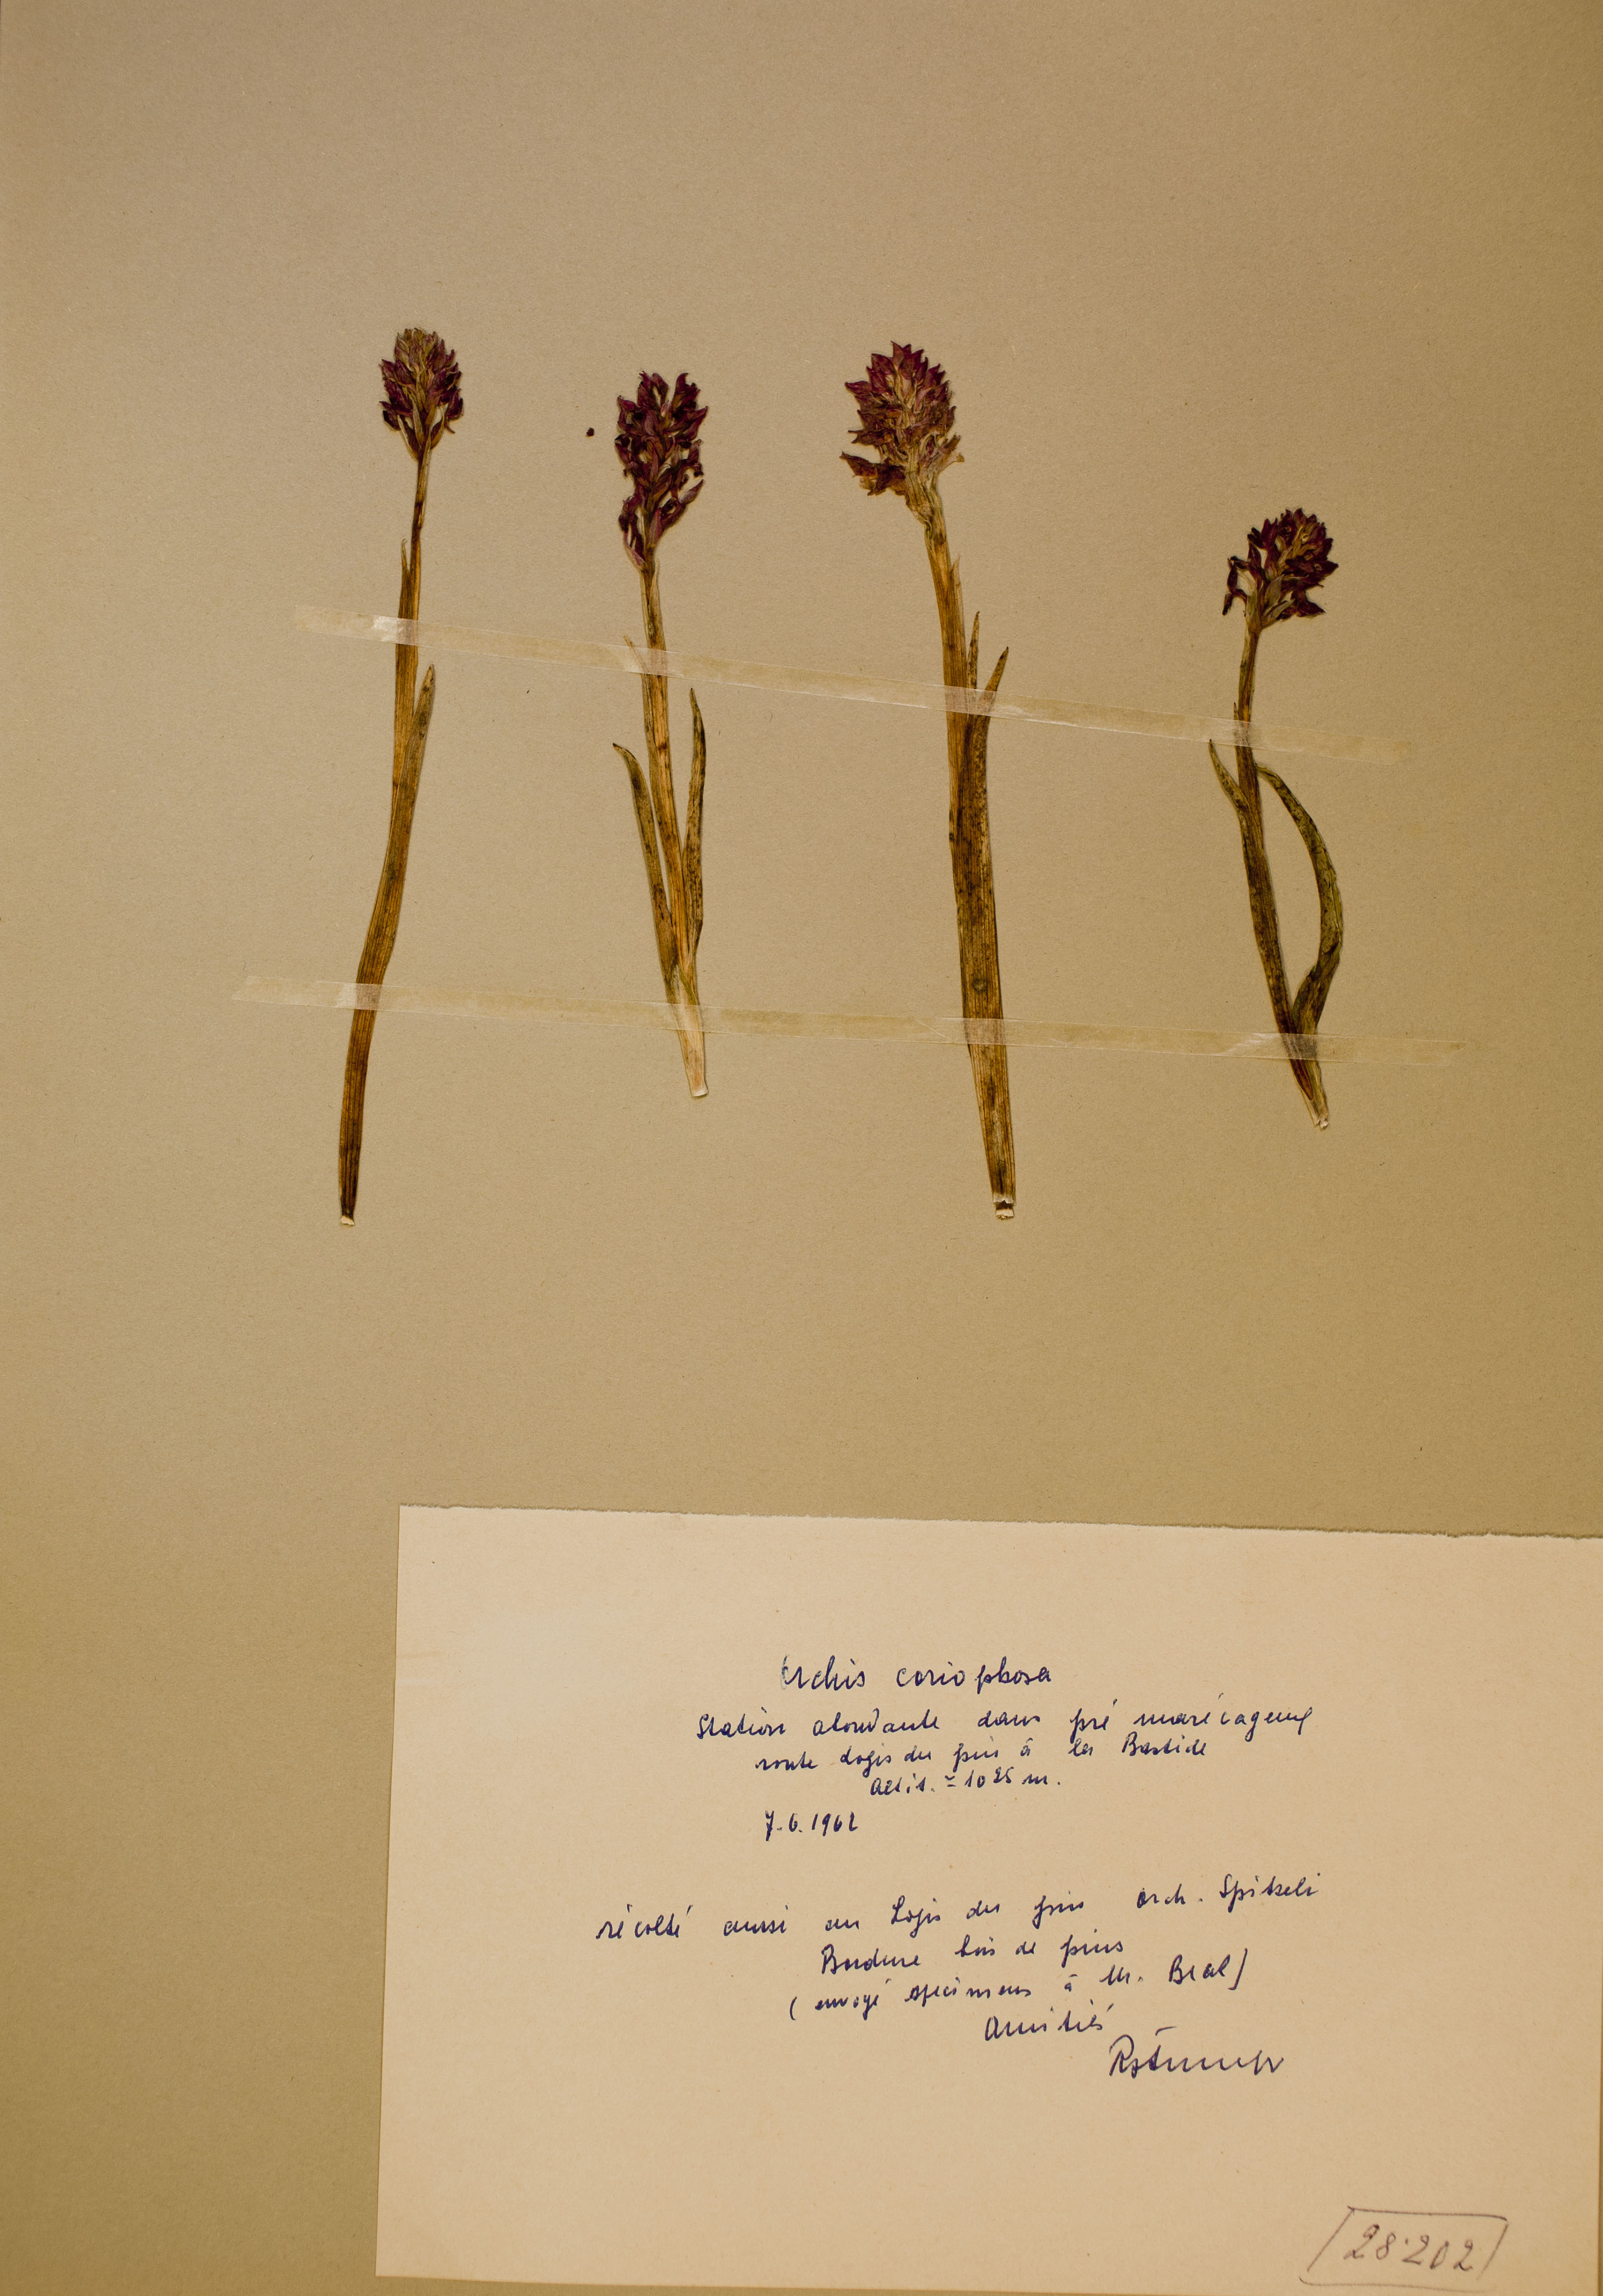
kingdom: Plantae
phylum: Tracheophyta
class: Liliopsida
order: Asparagales
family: Orchidaceae
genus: Anacamptis
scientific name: Anacamptis coriophora
